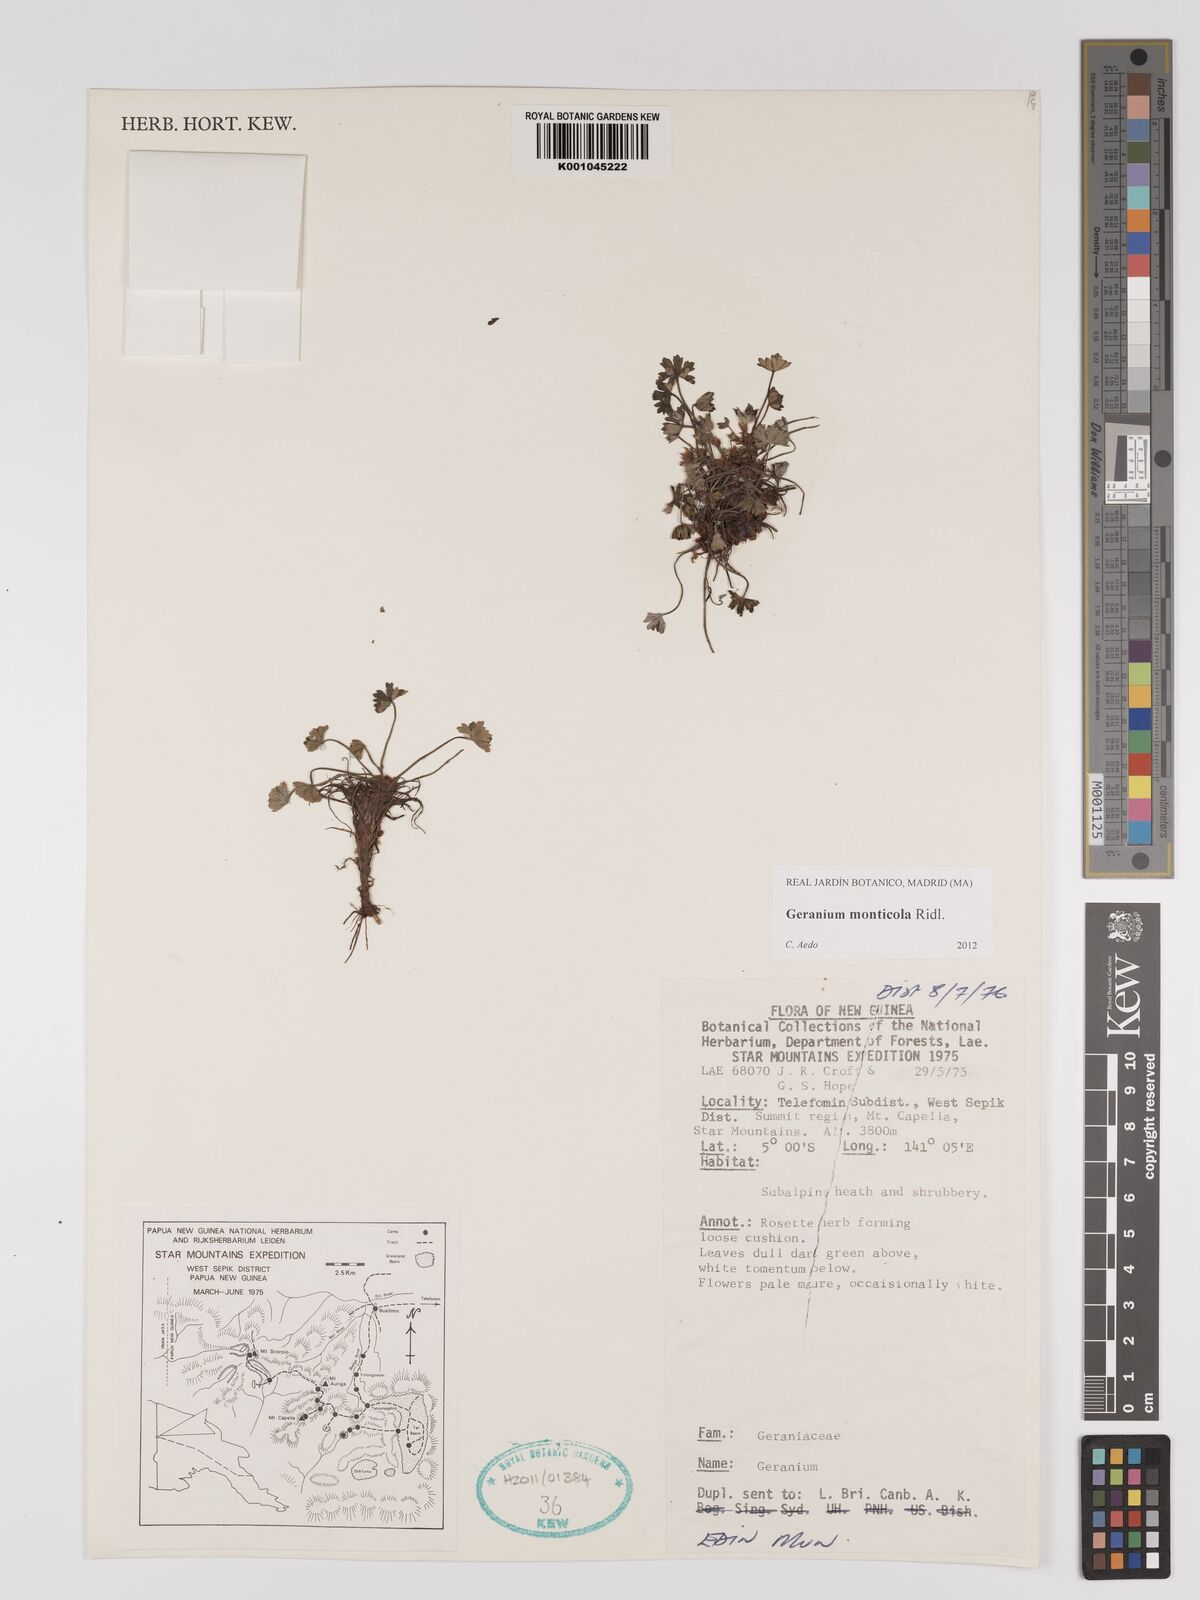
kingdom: Plantae
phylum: Tracheophyta
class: Magnoliopsida
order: Geraniales
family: Geraniaceae
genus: Geranium
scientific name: Geranium monticola
